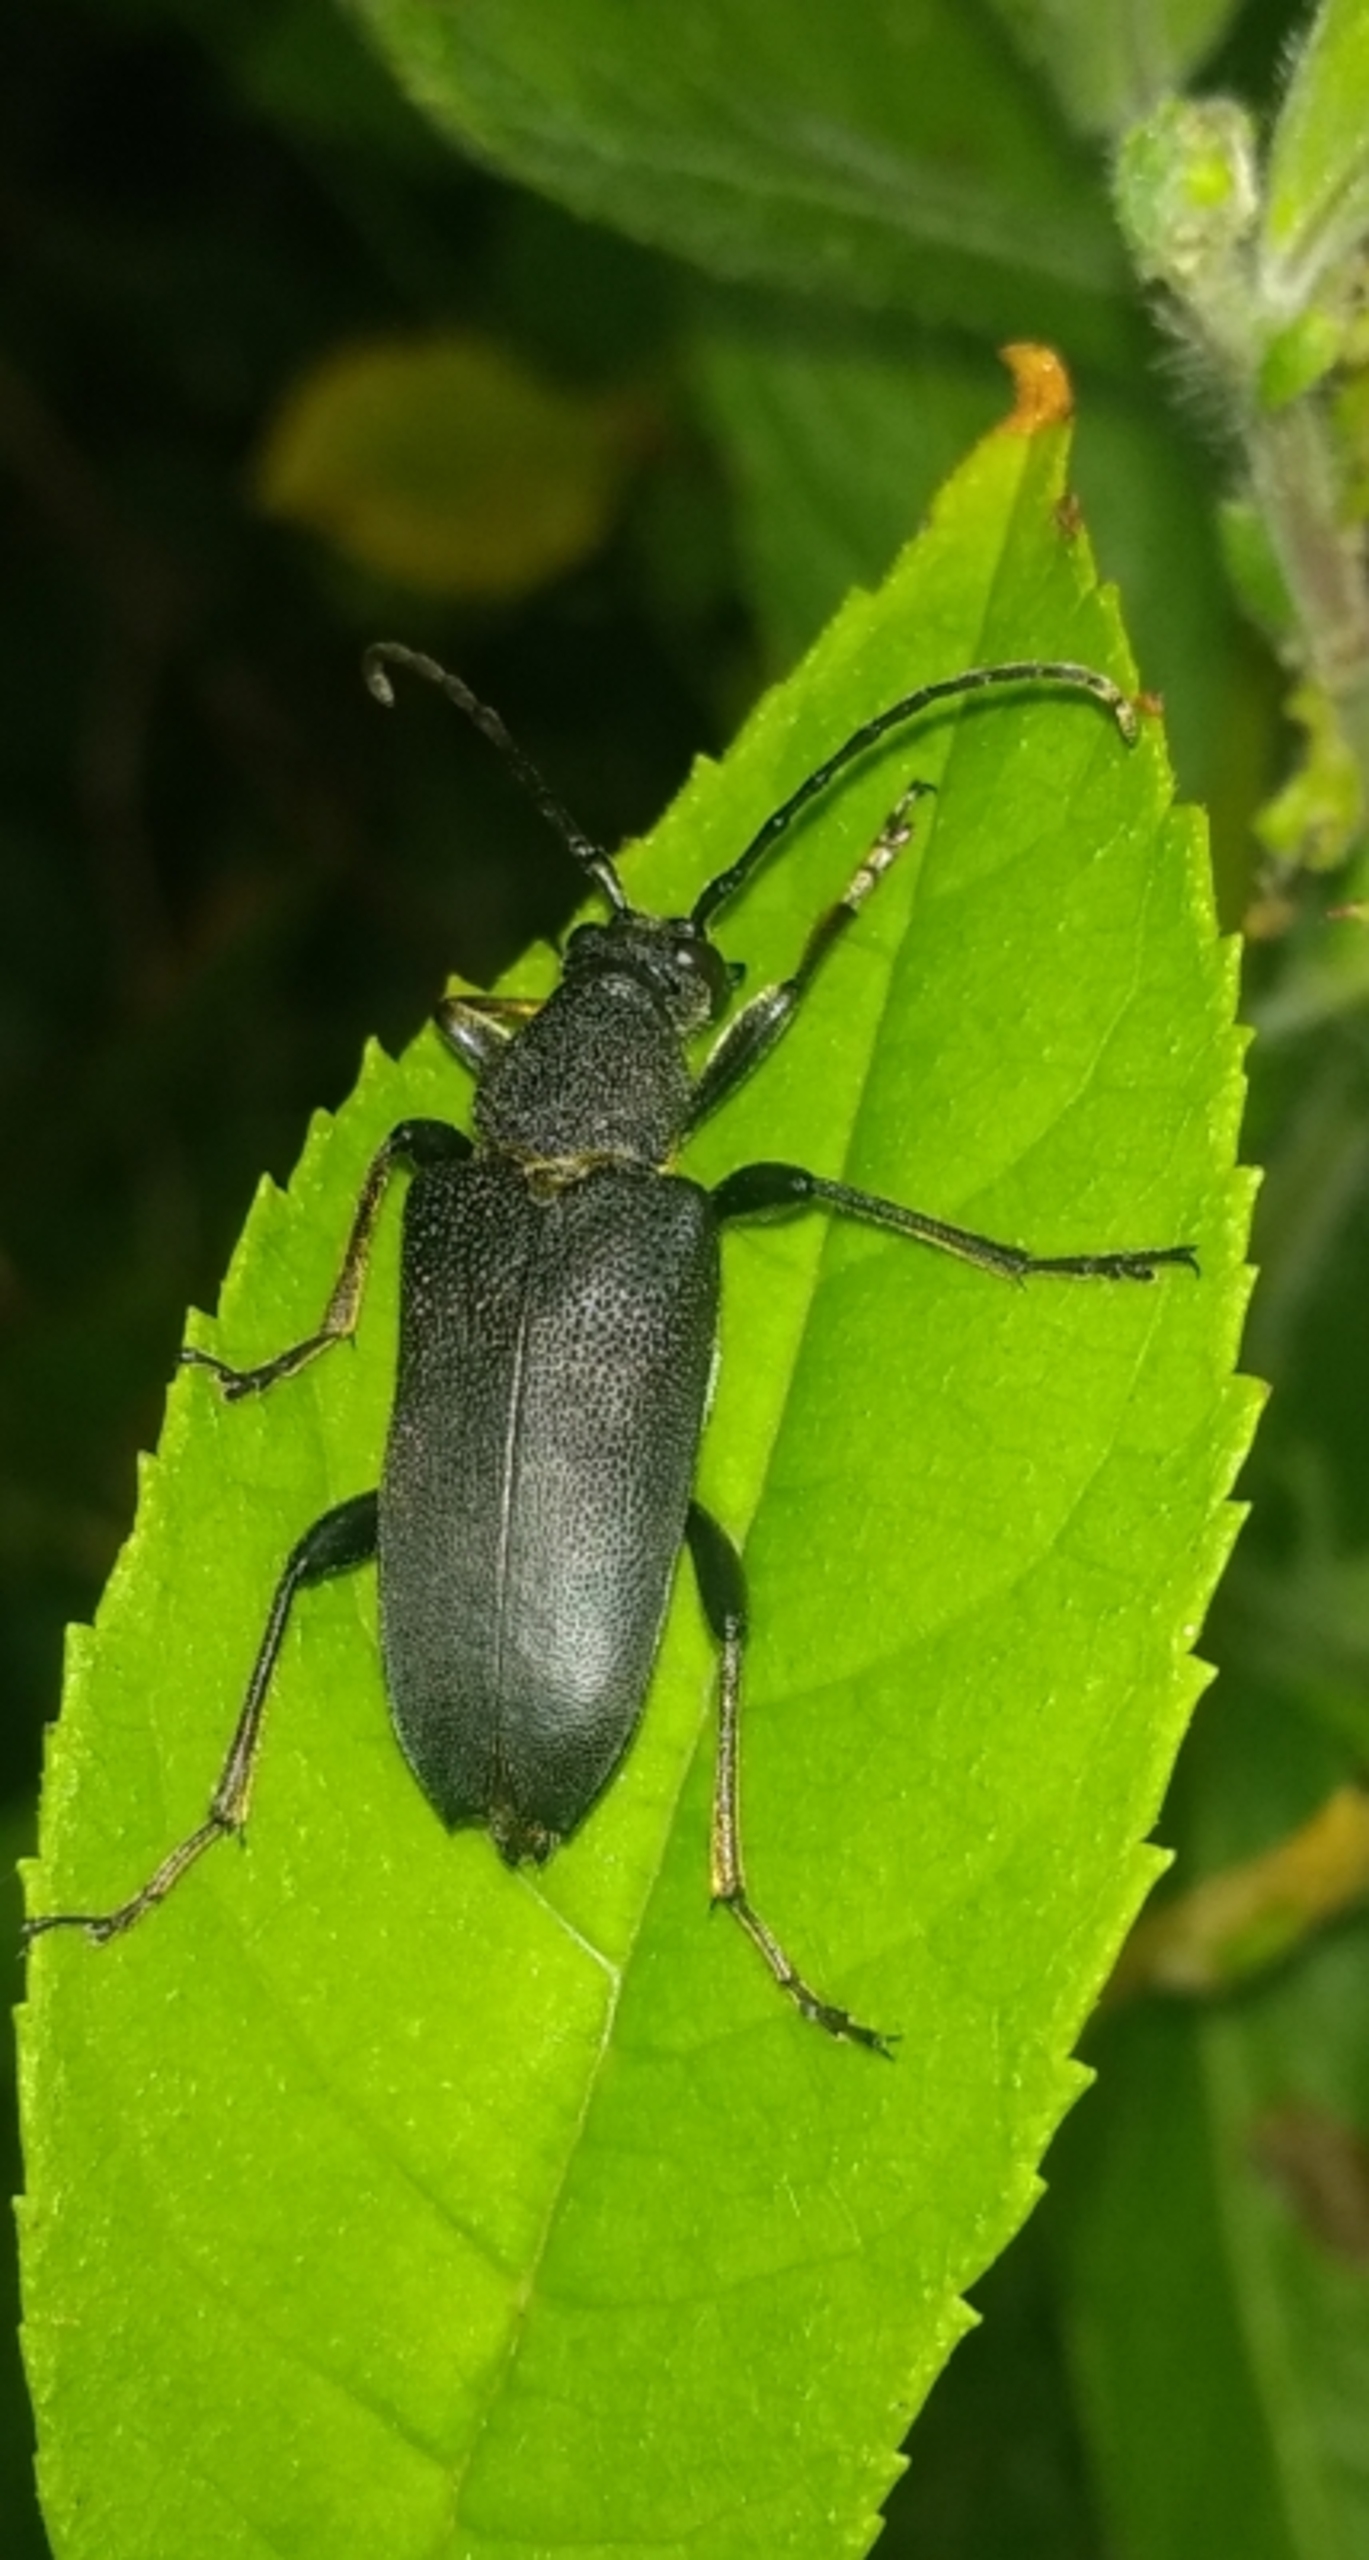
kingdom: Animalia
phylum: Arthropoda
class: Insecta
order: Coleoptera
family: Cerambycidae
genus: Stictoleptura
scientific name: Stictoleptura scutellata
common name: Sort blomsterbuk
